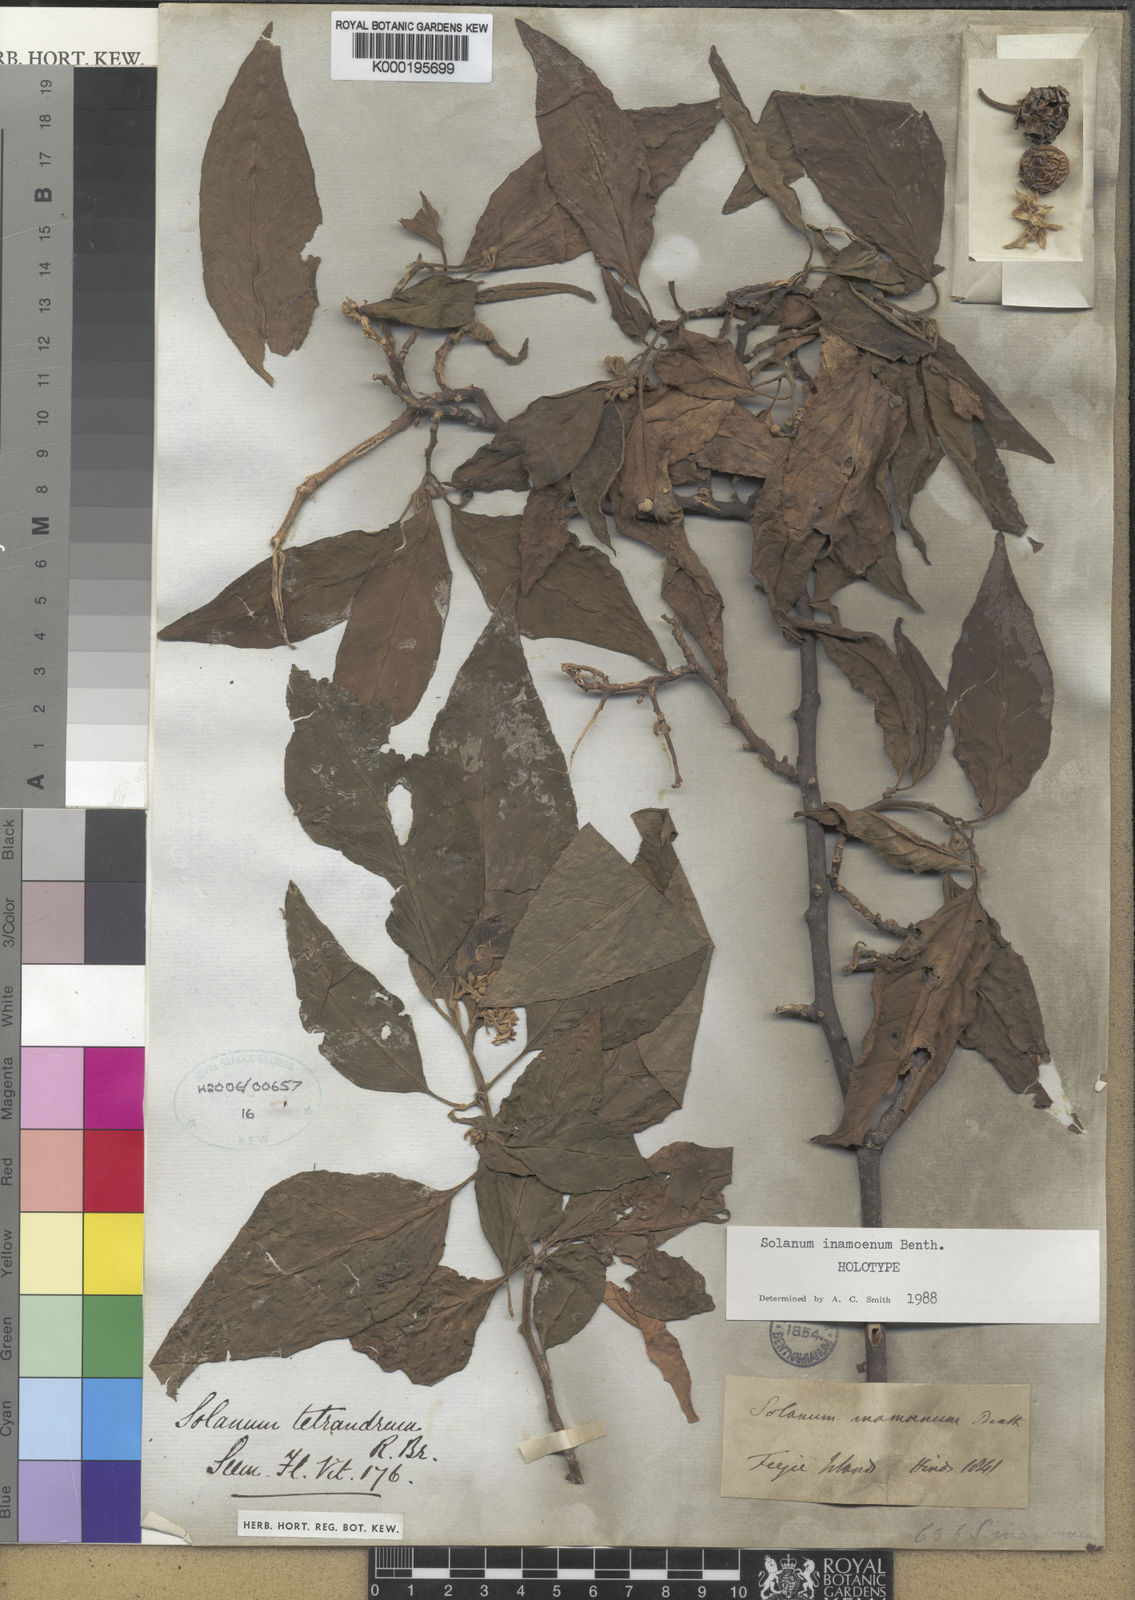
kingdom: Plantae
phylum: Tracheophyta
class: Magnoliopsida
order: Solanales
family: Solanaceae
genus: Solanum
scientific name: Solanum inamoenum
